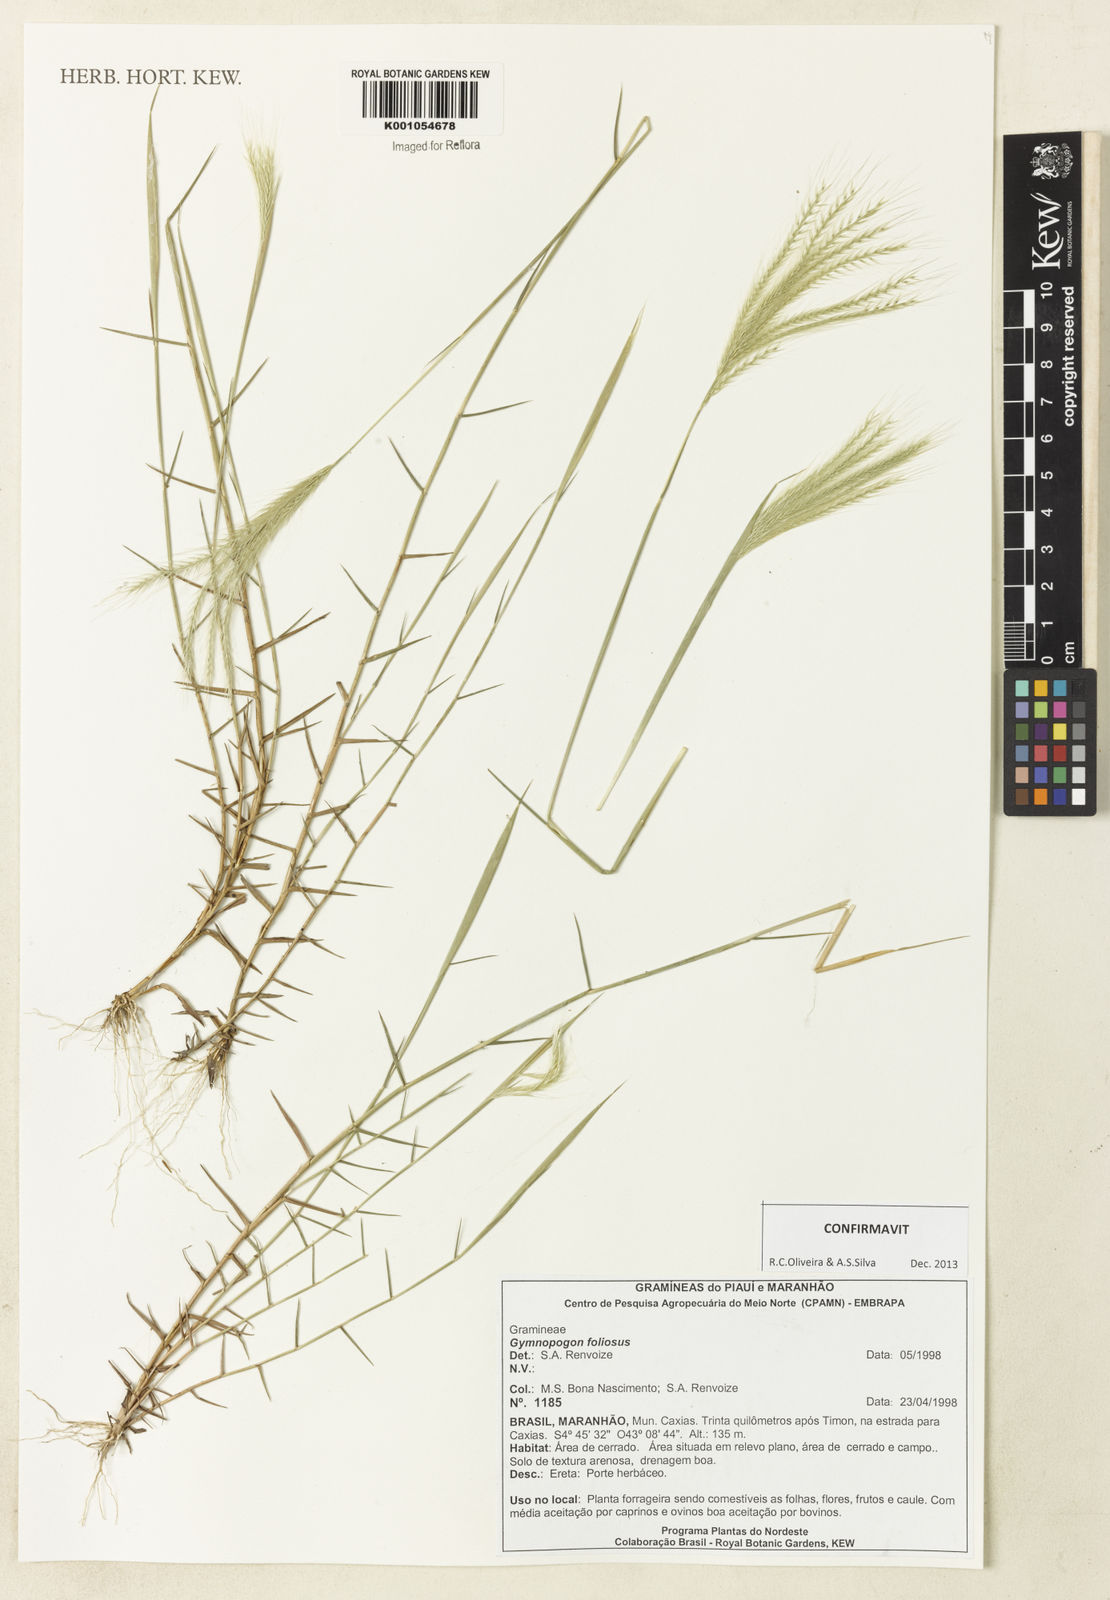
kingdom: Plantae
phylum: Tracheophyta
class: Liliopsida
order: Poales
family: Poaceae
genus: Gymnopogon
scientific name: Gymnopogon foliosus
